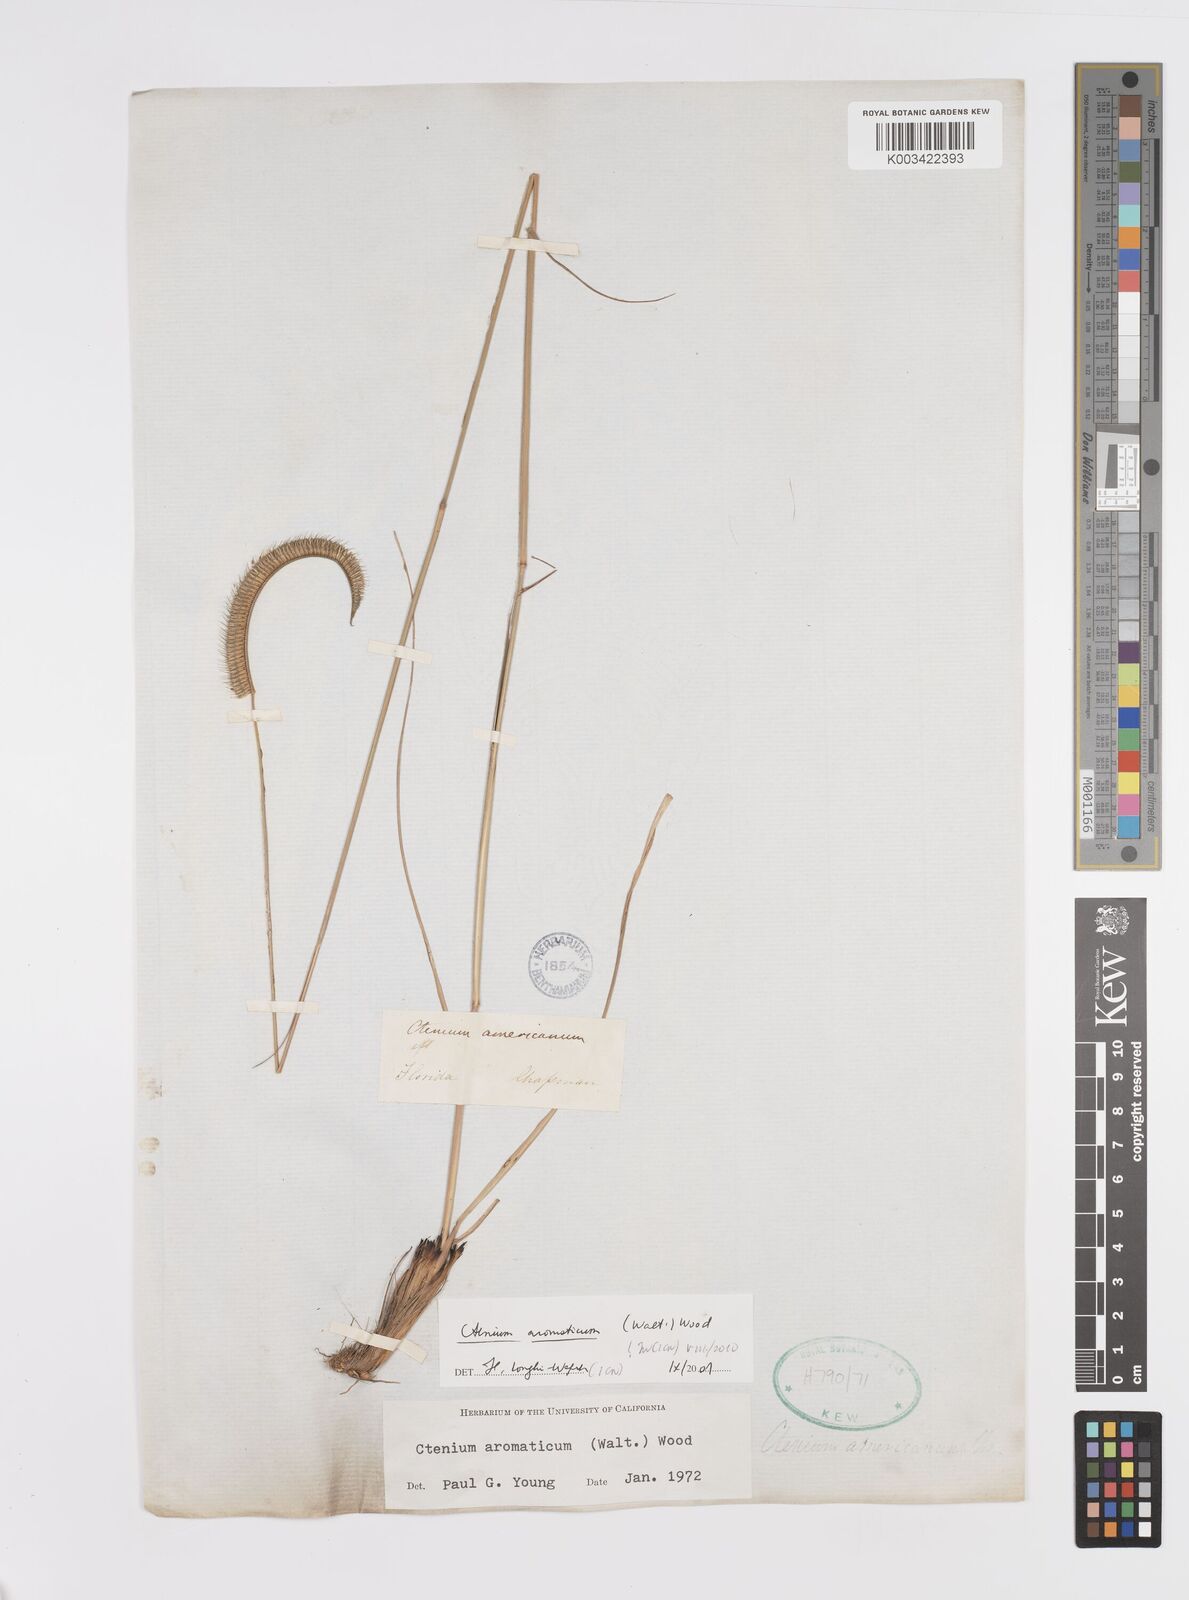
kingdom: Plantae
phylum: Tracheophyta
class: Liliopsida
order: Poales
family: Poaceae
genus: Ctenium
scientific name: Ctenium aromaticum
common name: Toothache grass
